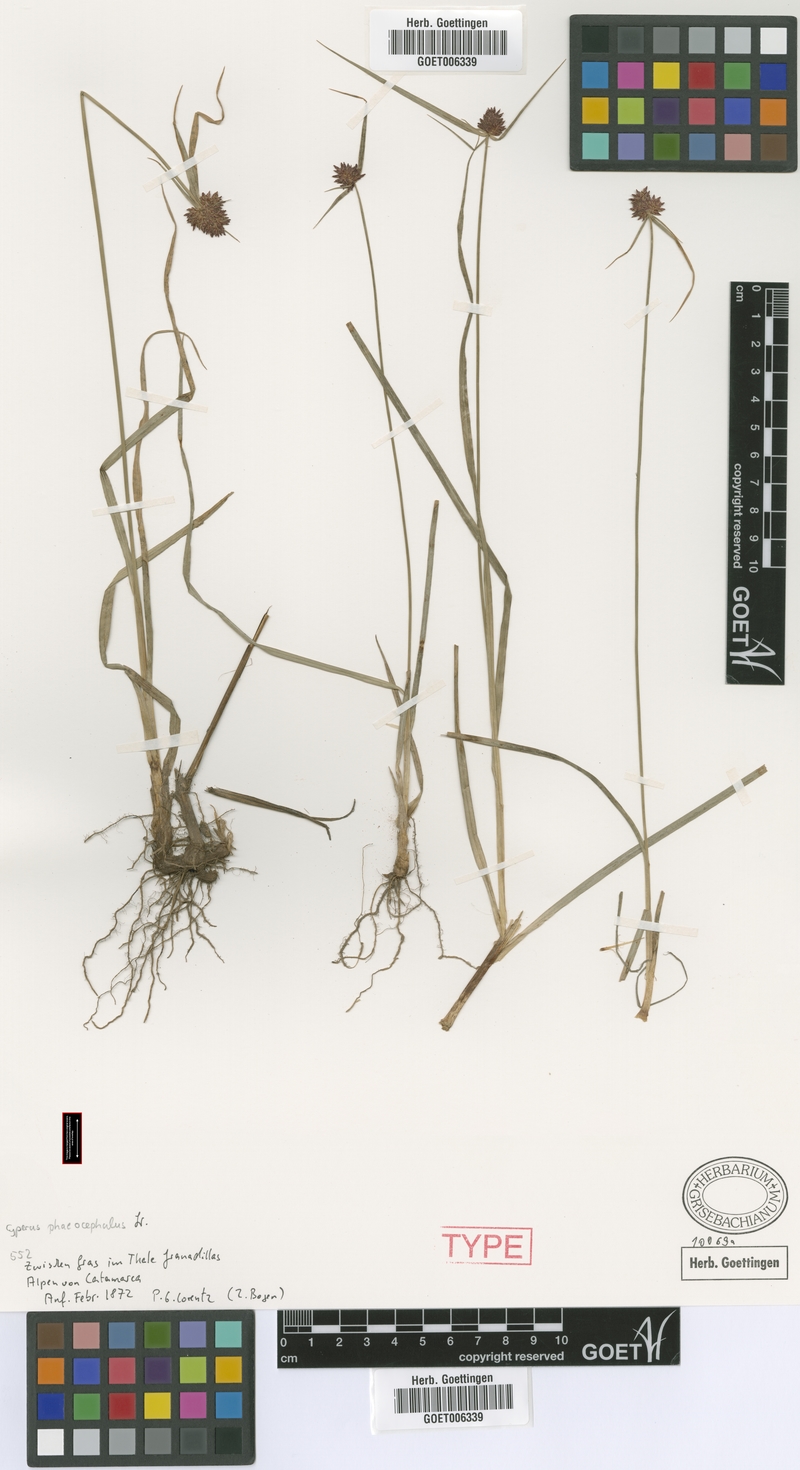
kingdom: Plantae
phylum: Tracheophyta
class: Liliopsida
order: Poales
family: Cyperaceae
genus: Cyperus
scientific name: Cyperus manimae
